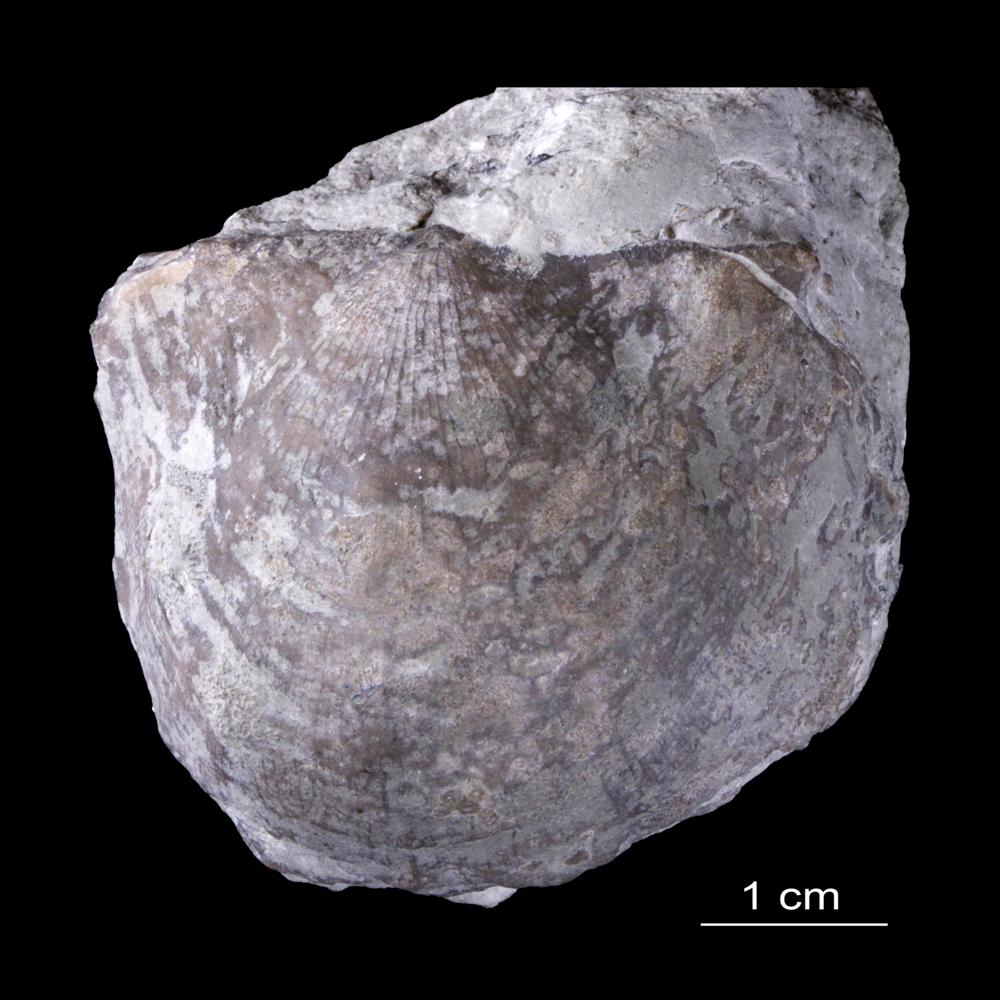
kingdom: Animalia
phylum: Brachiopoda
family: Leptostrophiidae
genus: Erinostrophia
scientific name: Erinostrophia Strophomena walmstedti
